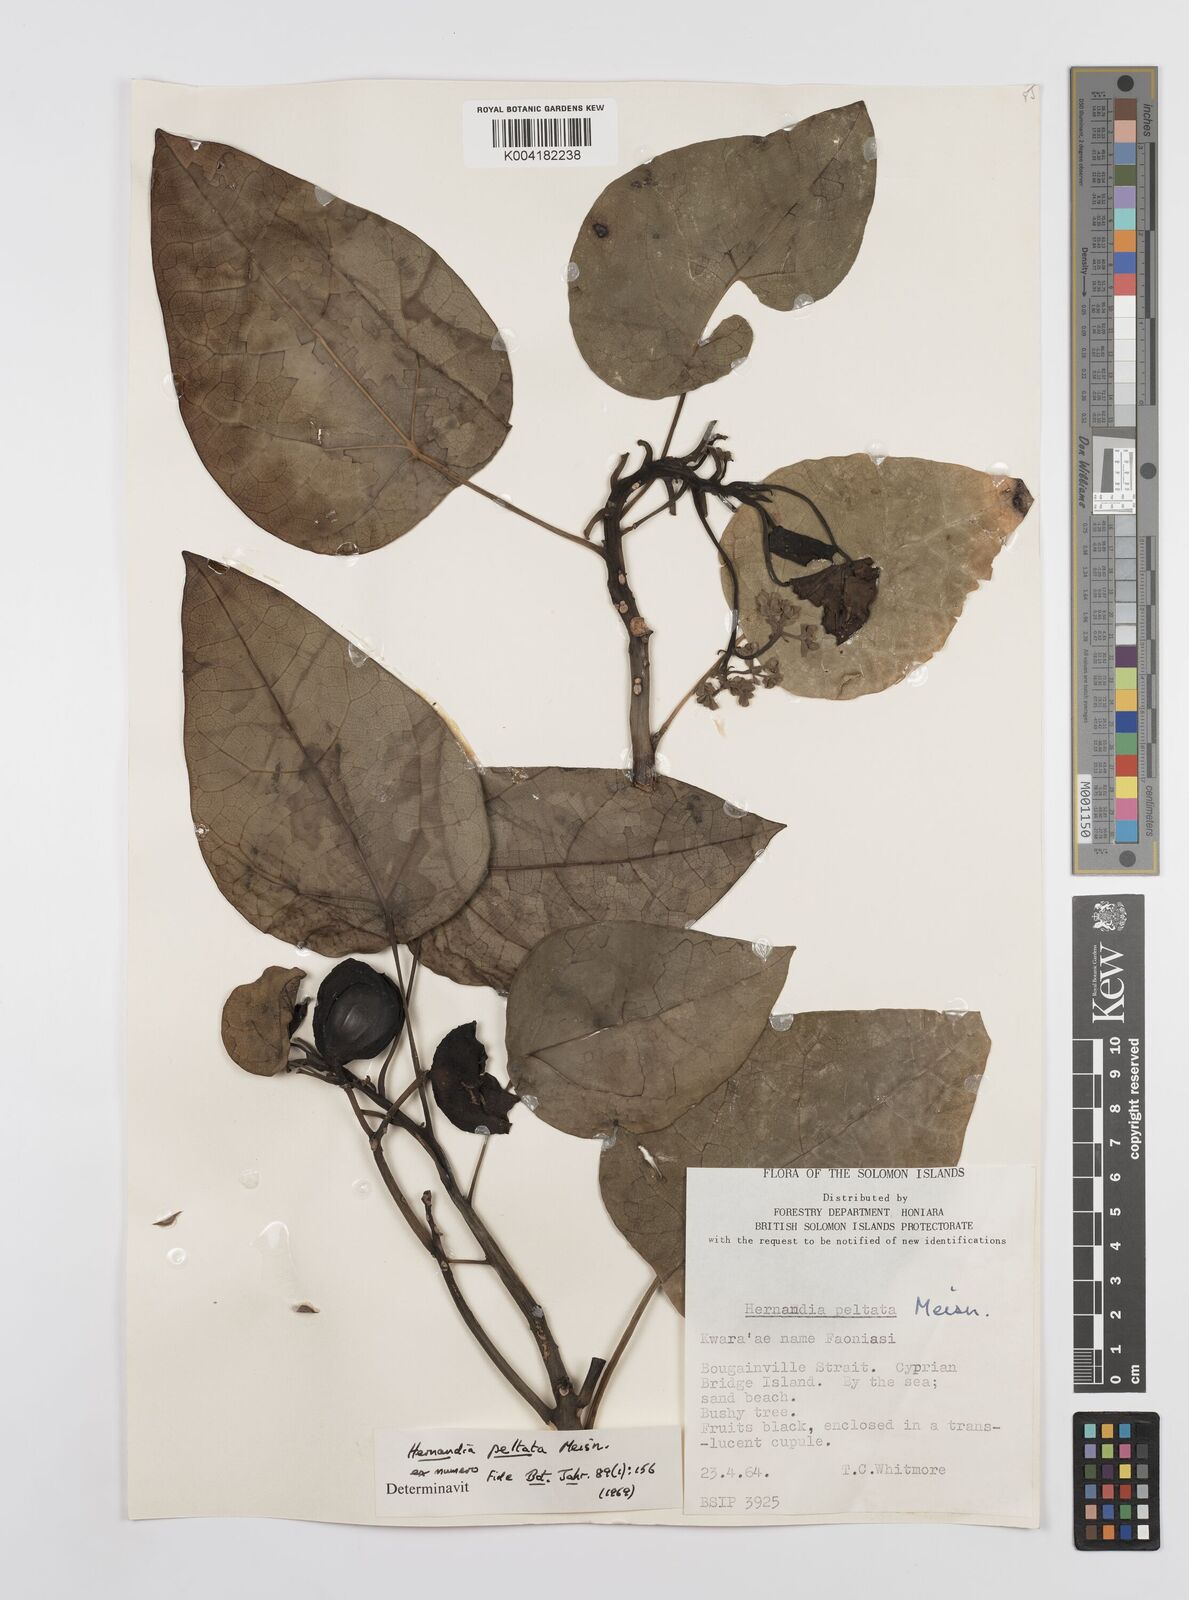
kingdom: Plantae
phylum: Tracheophyta
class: Magnoliopsida
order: Laurales
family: Hernandiaceae
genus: Hernandia
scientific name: Hernandia
